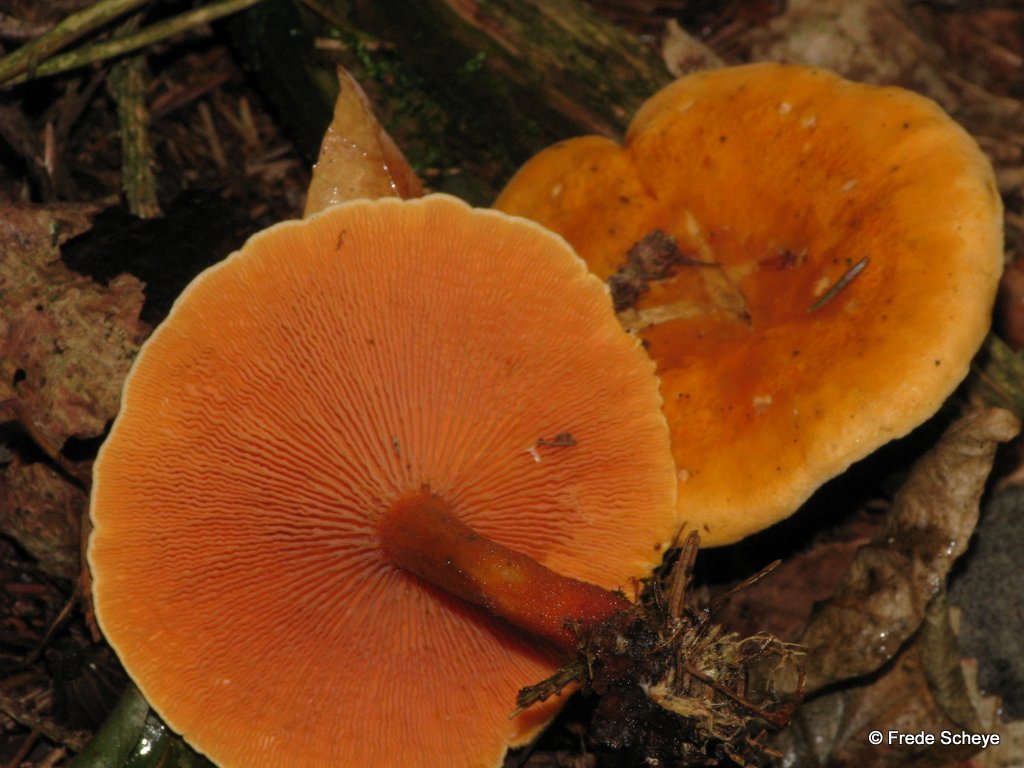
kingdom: Fungi
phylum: Basidiomycota
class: Agaricomycetes
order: Boletales
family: Hygrophoropsidaceae
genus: Hygrophoropsis
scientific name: Hygrophoropsis aurantiaca
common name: almindelig orangekantarel
